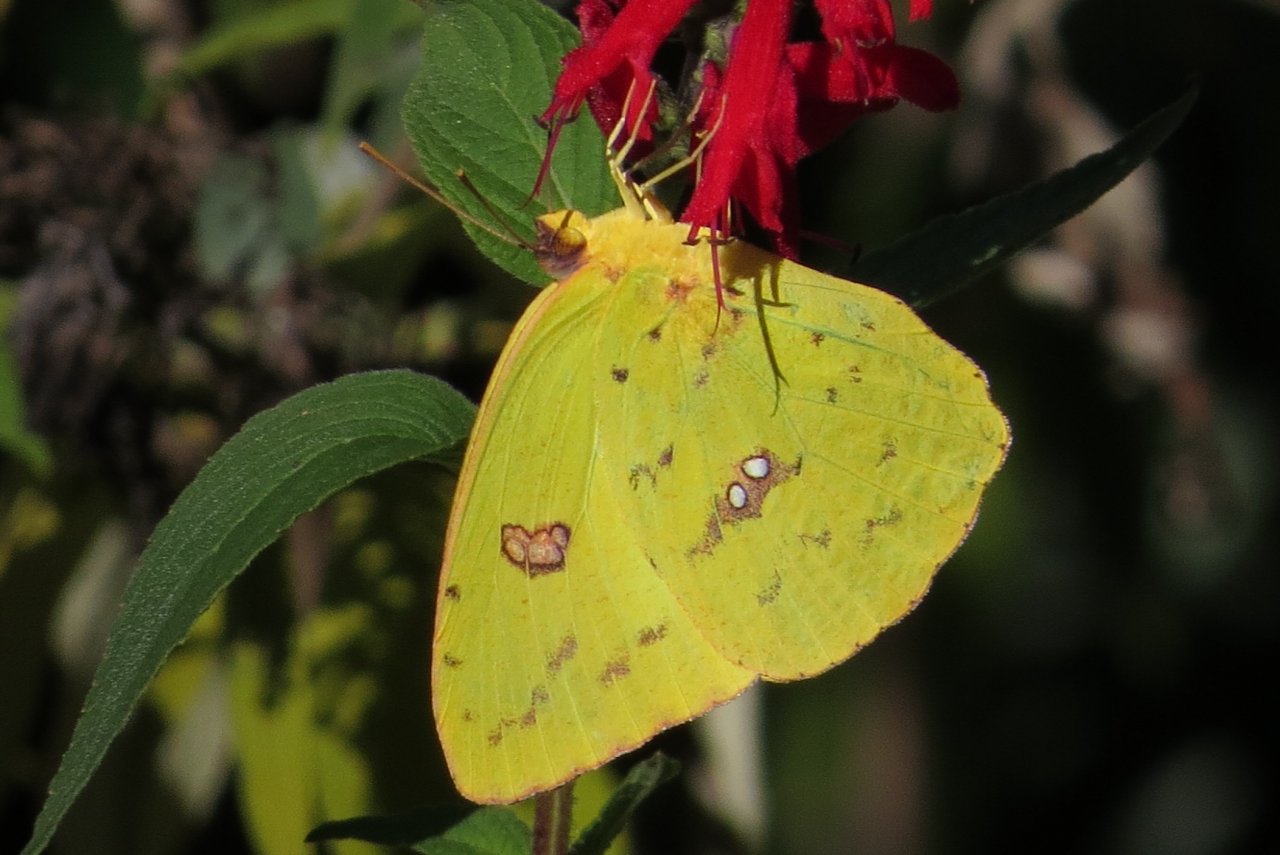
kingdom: Animalia
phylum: Arthropoda
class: Insecta
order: Lepidoptera
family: Pieridae
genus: Phoebis
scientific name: Phoebis sennae
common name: Cloudless Sulphur
